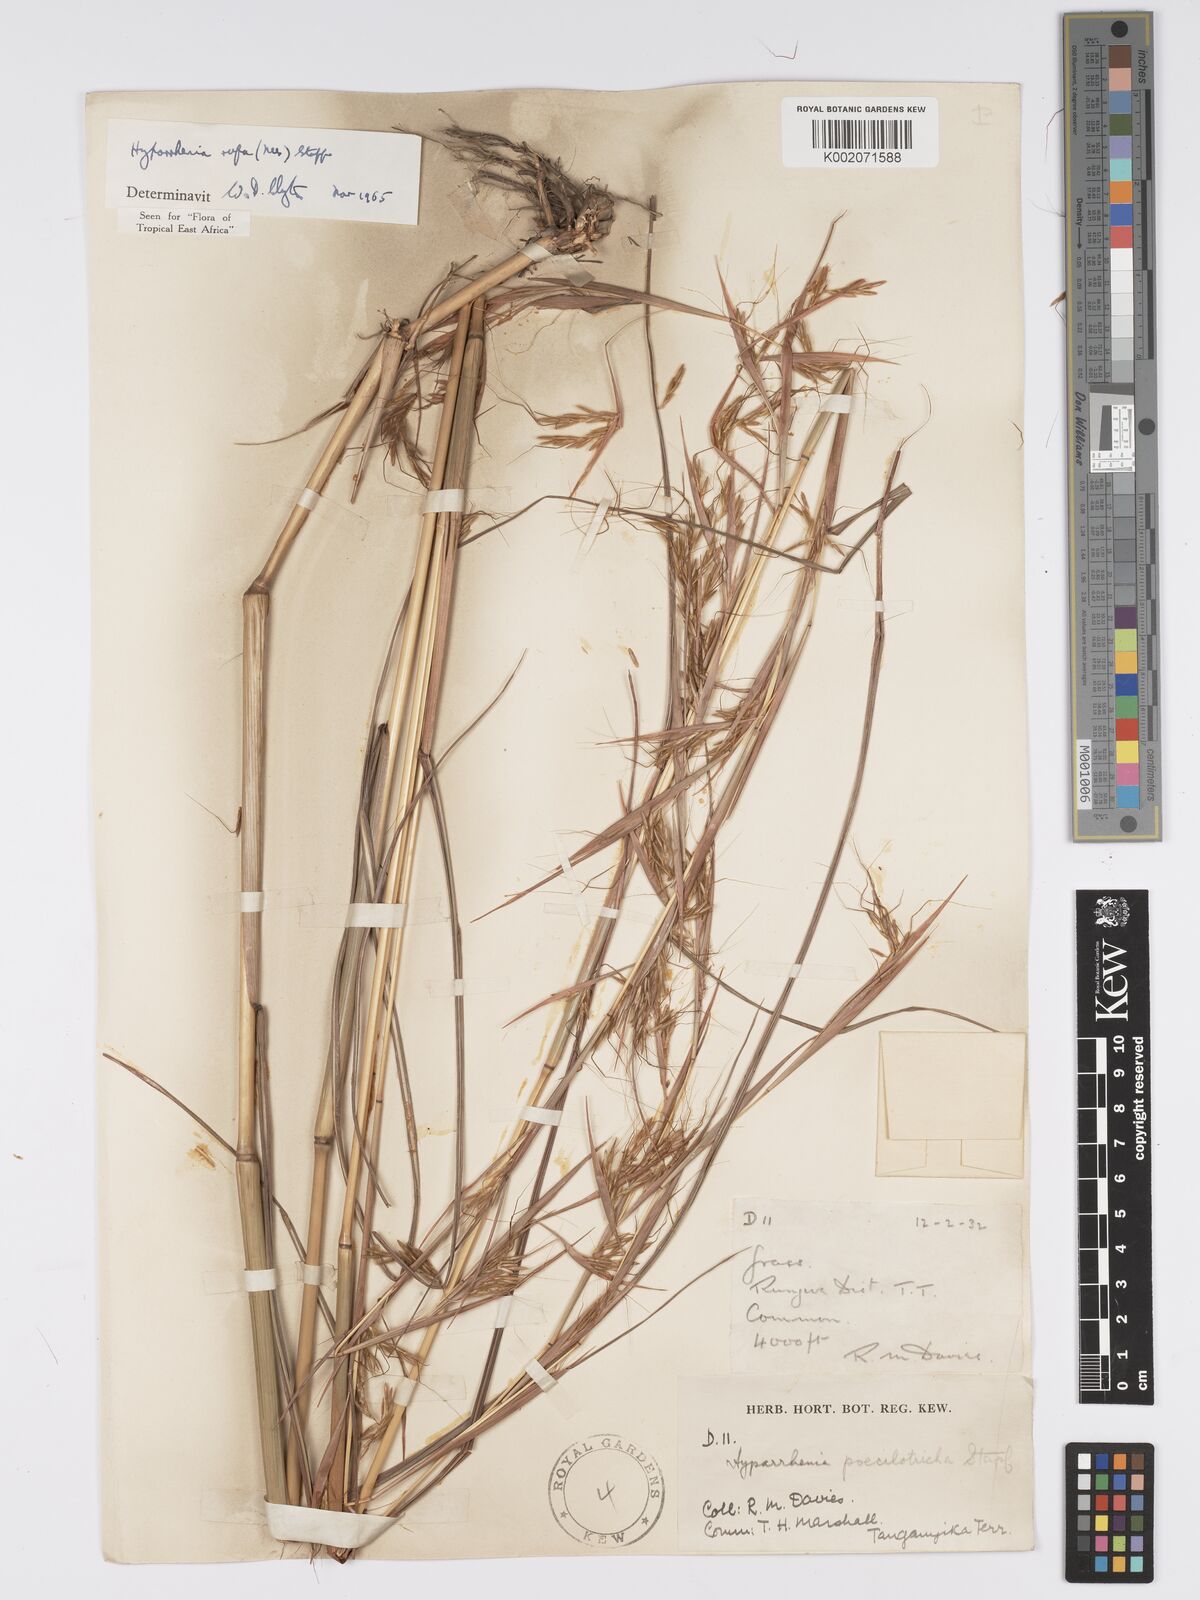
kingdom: Plantae
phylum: Tracheophyta
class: Liliopsida
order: Poales
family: Poaceae
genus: Hyparrhenia
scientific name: Hyparrhenia rufa
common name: Jaraguagrass
